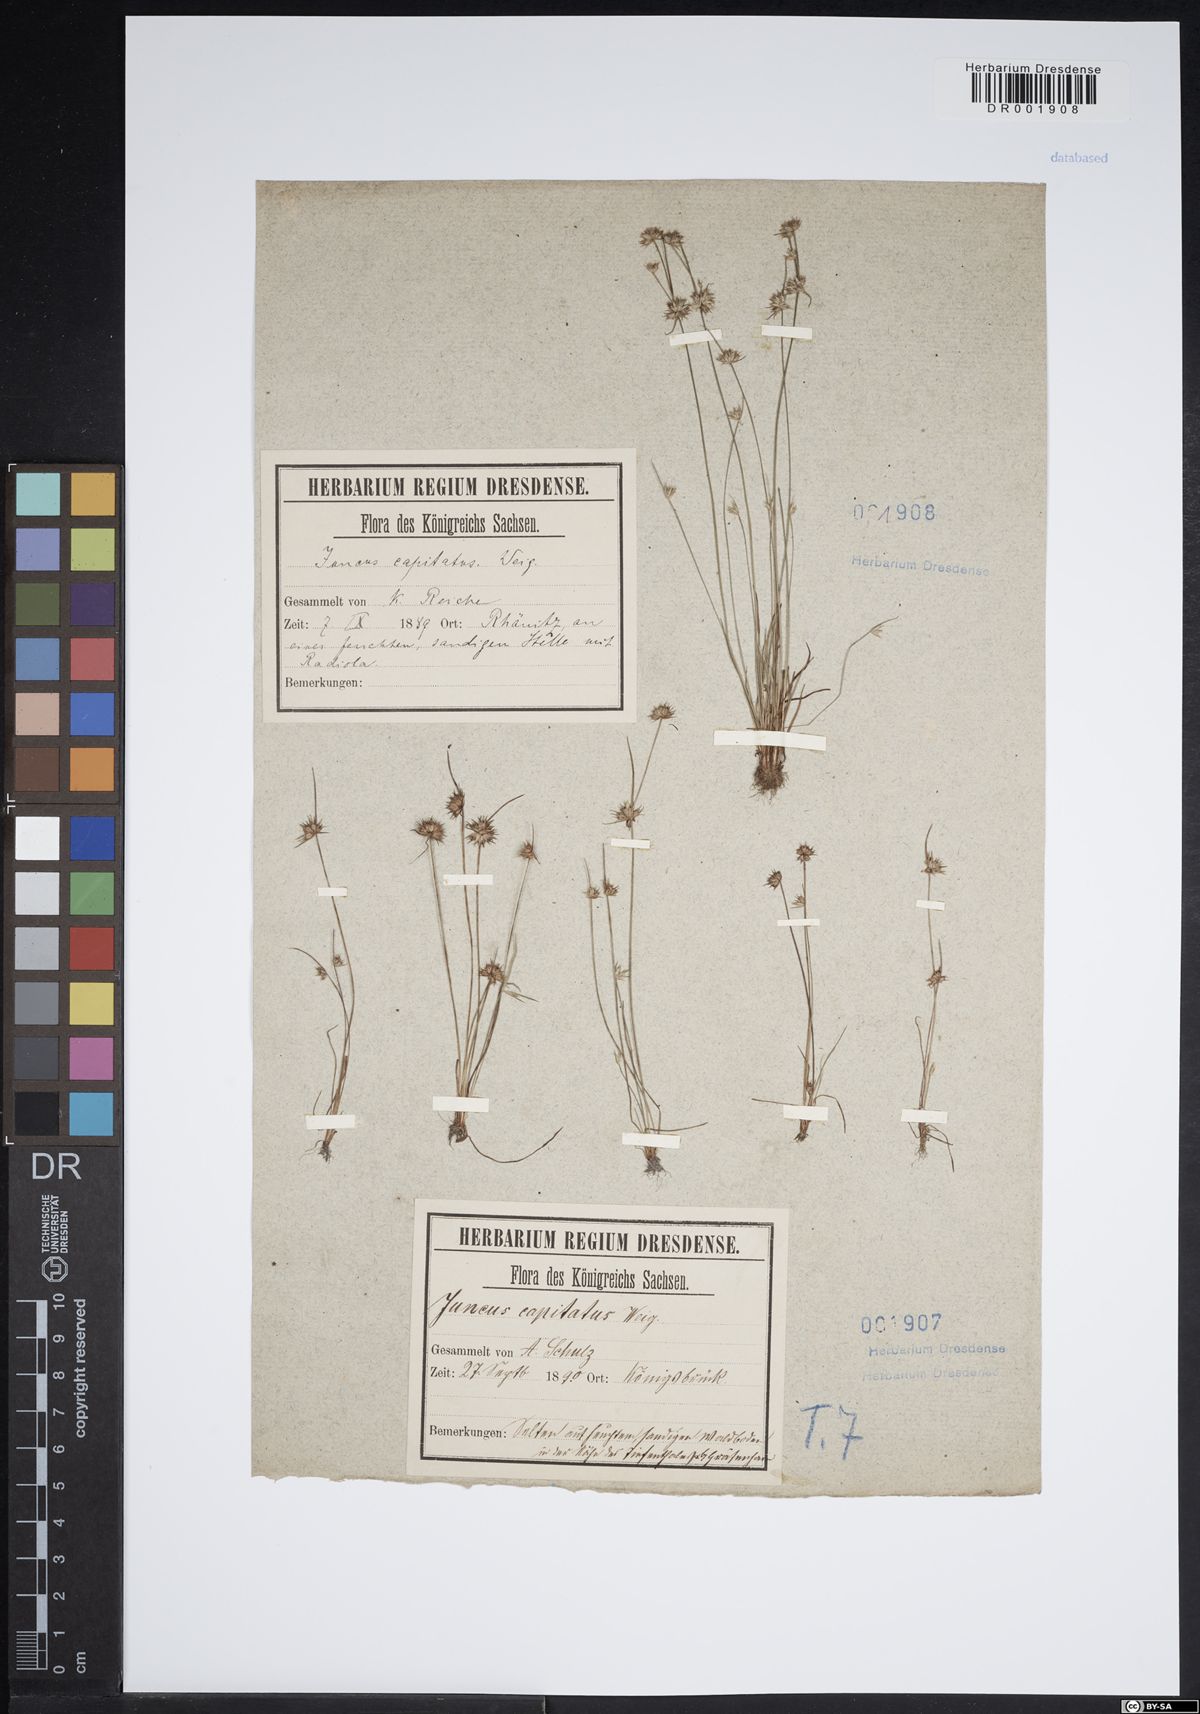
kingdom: Plantae
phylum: Tracheophyta
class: Liliopsida
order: Poales
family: Juncaceae
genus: Juncus
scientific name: Juncus capitatus
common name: Dwarf rush
